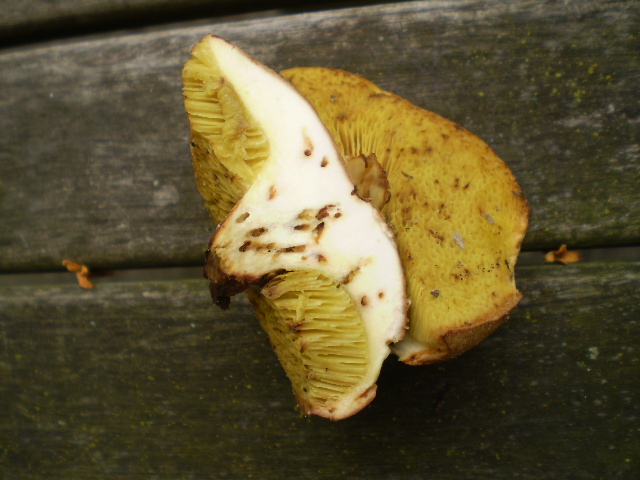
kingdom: Fungi
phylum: Basidiomycota
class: Agaricomycetes
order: Boletales
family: Boletaceae
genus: Xerocomus
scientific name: Xerocomus ferrugineus
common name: vaskeskinds-rørhat
